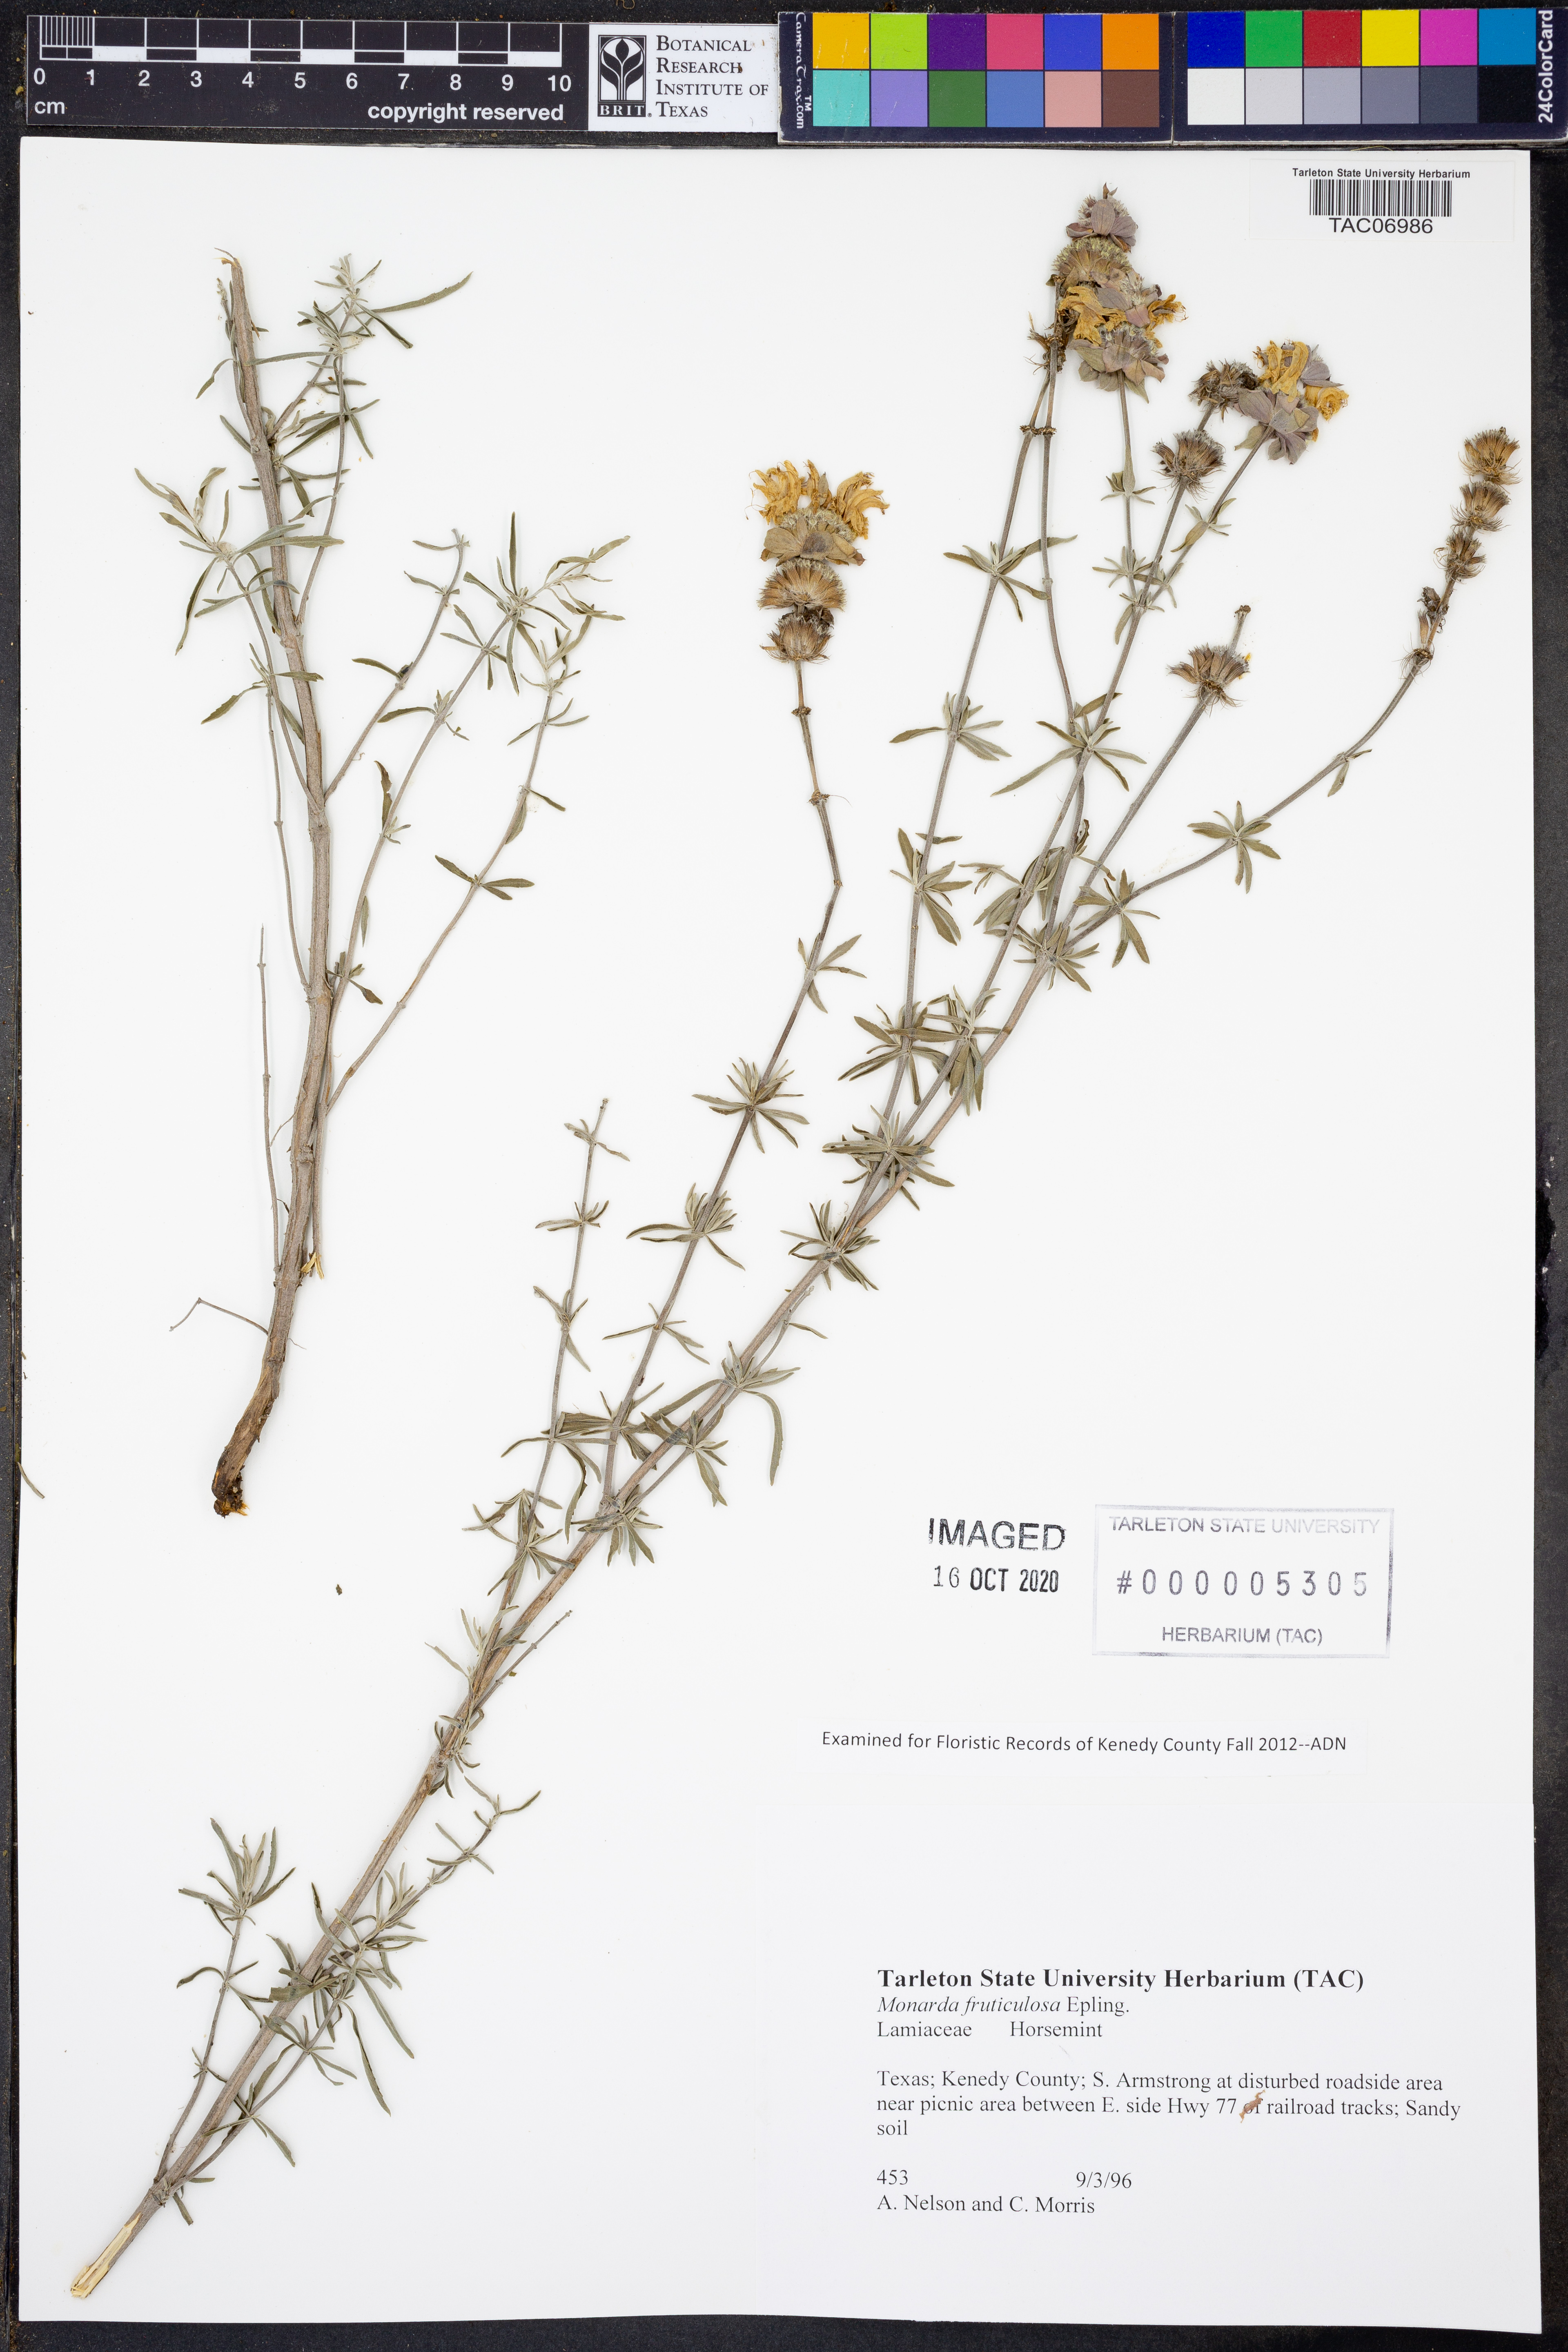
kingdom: Plantae
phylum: Tracheophyta
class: Magnoliopsida
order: Lamiales
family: Lamiaceae
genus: Monarda
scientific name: Monarda fruticulosa
